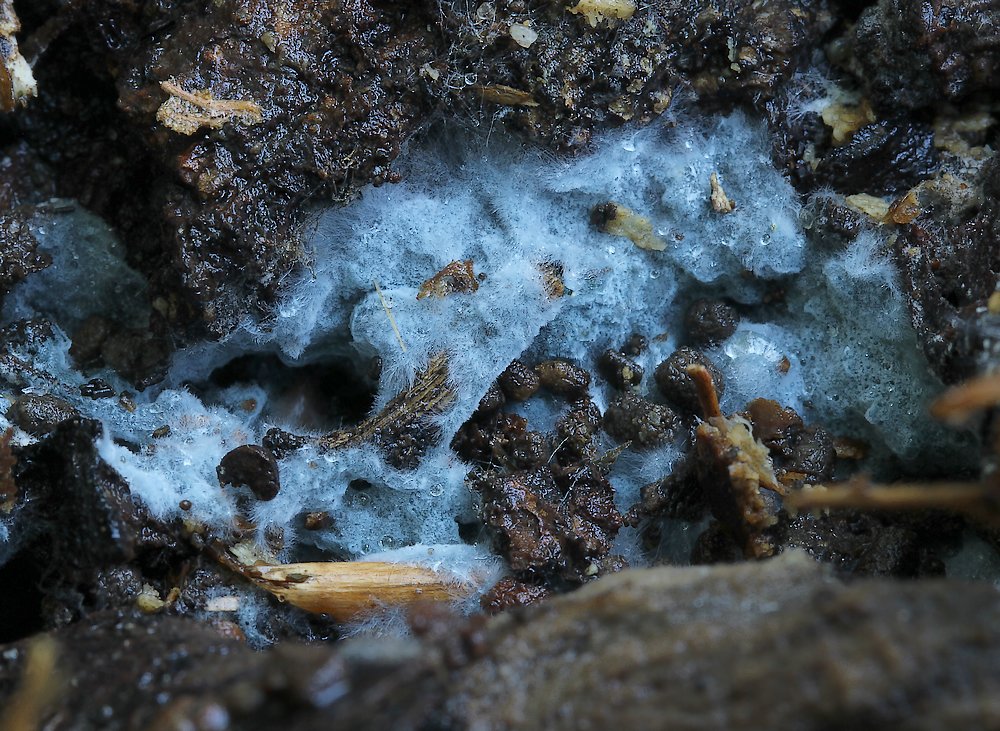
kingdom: Fungi
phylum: Basidiomycota
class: Agaricomycetes
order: Atheliales
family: Atheliaceae
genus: Byssocorticium
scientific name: Byssocorticium atrovirens
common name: blå førnehinde
